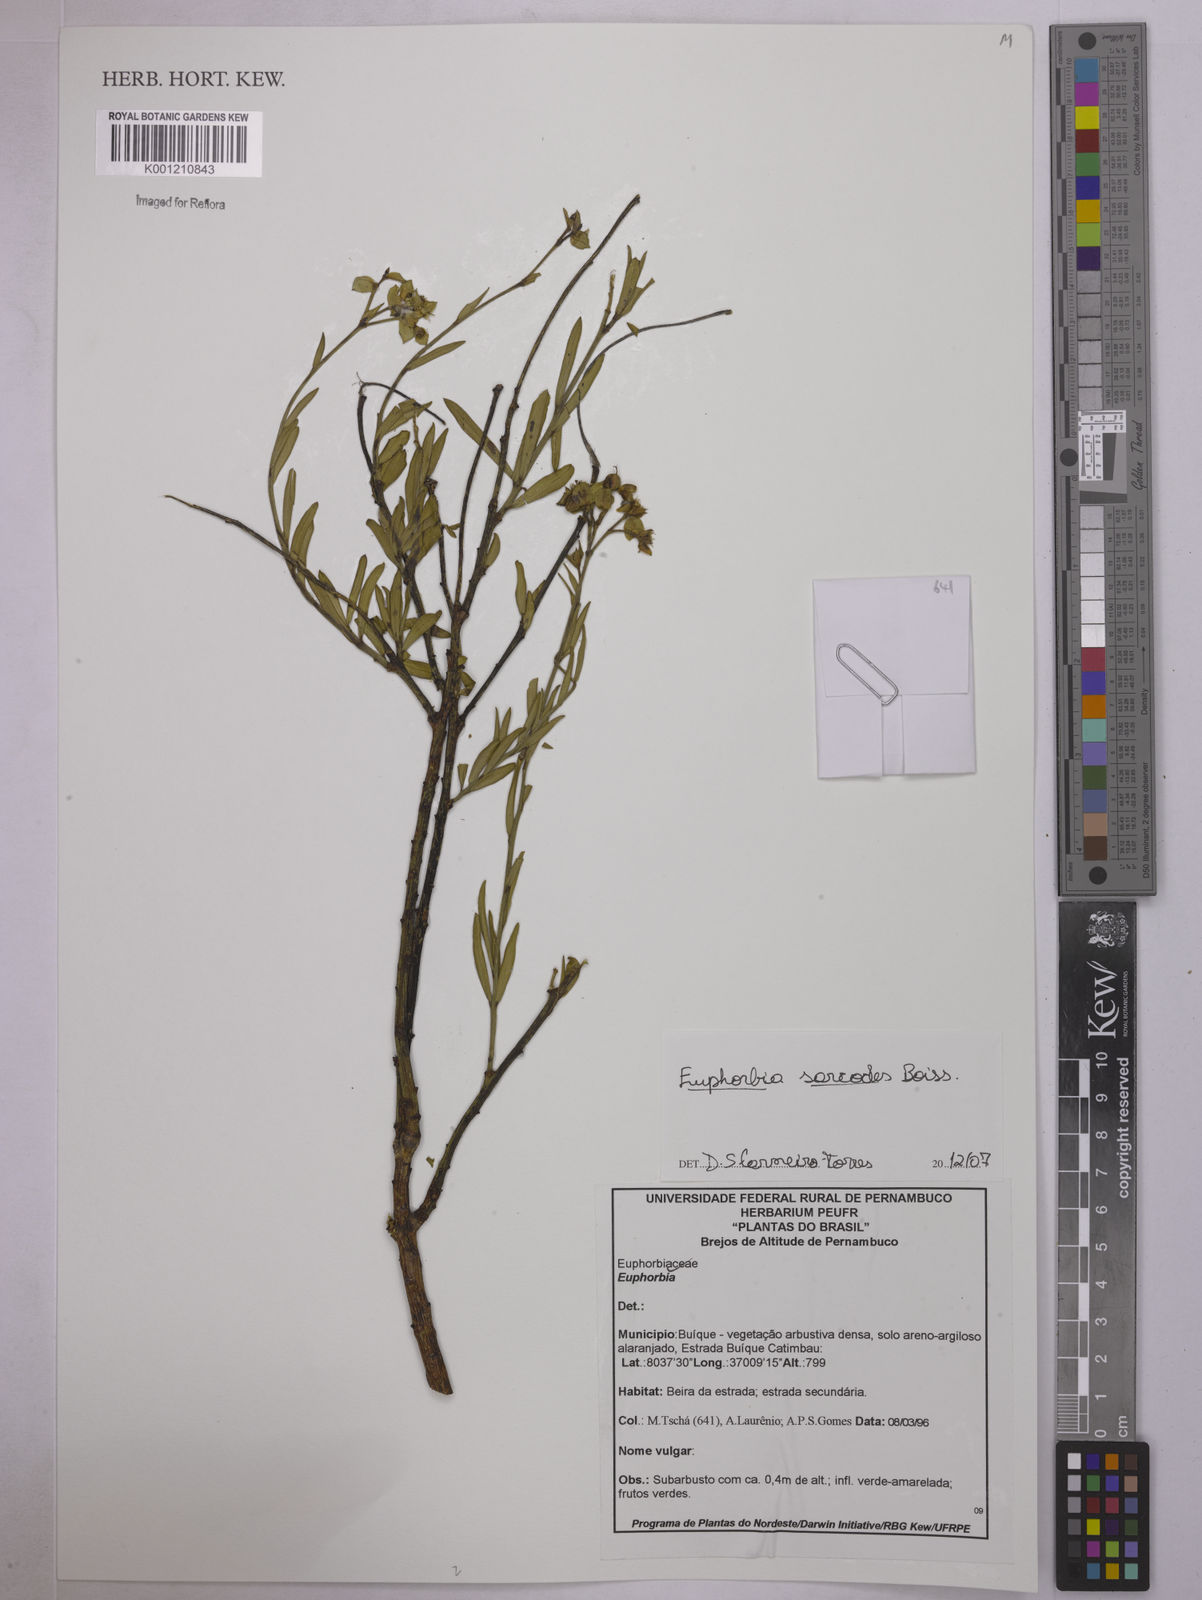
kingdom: Plantae
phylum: Tracheophyta
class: Magnoliopsida
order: Malpighiales
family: Euphorbiaceae
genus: Euphorbia
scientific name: Euphorbia sarcodes
